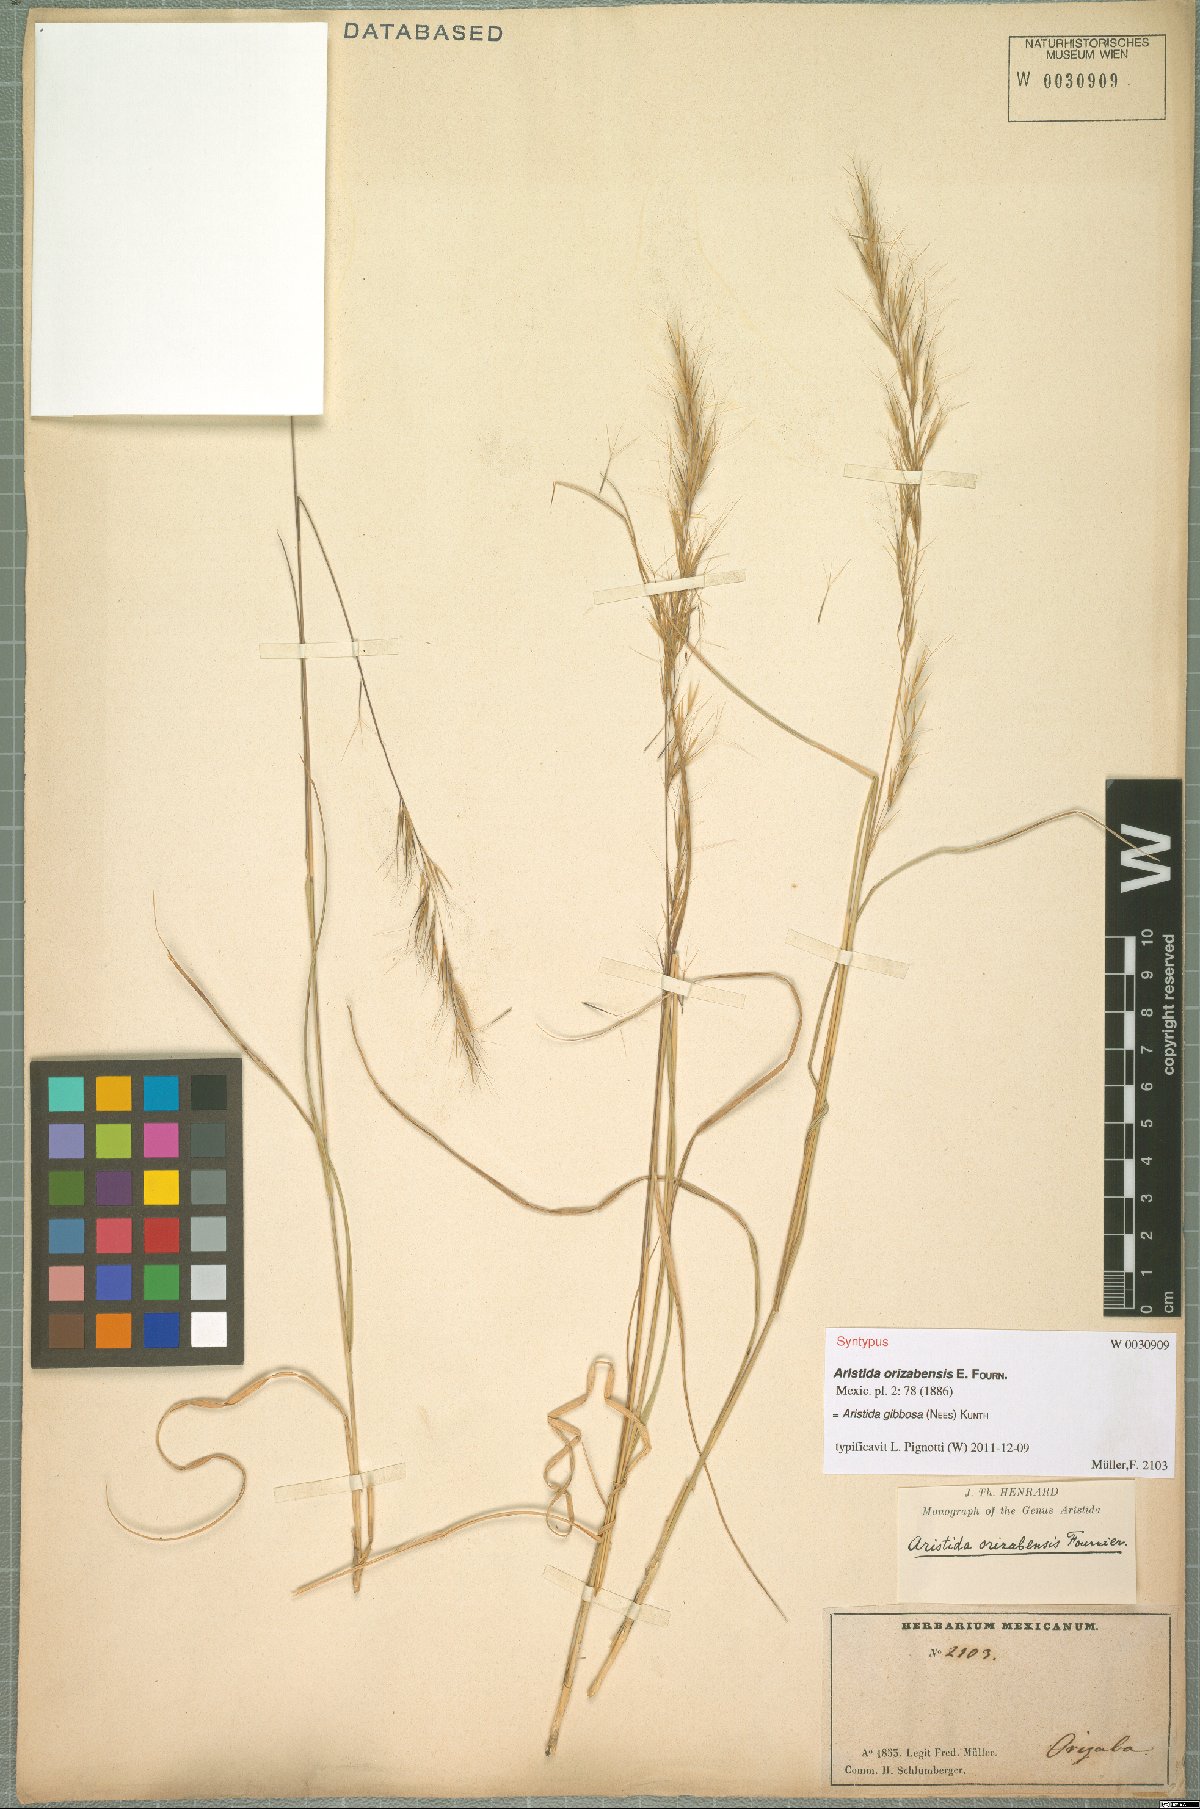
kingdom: Plantae
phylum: Tracheophyta
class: Liliopsida
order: Poales
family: Poaceae
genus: Aristida
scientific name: Aristida gibbosa
